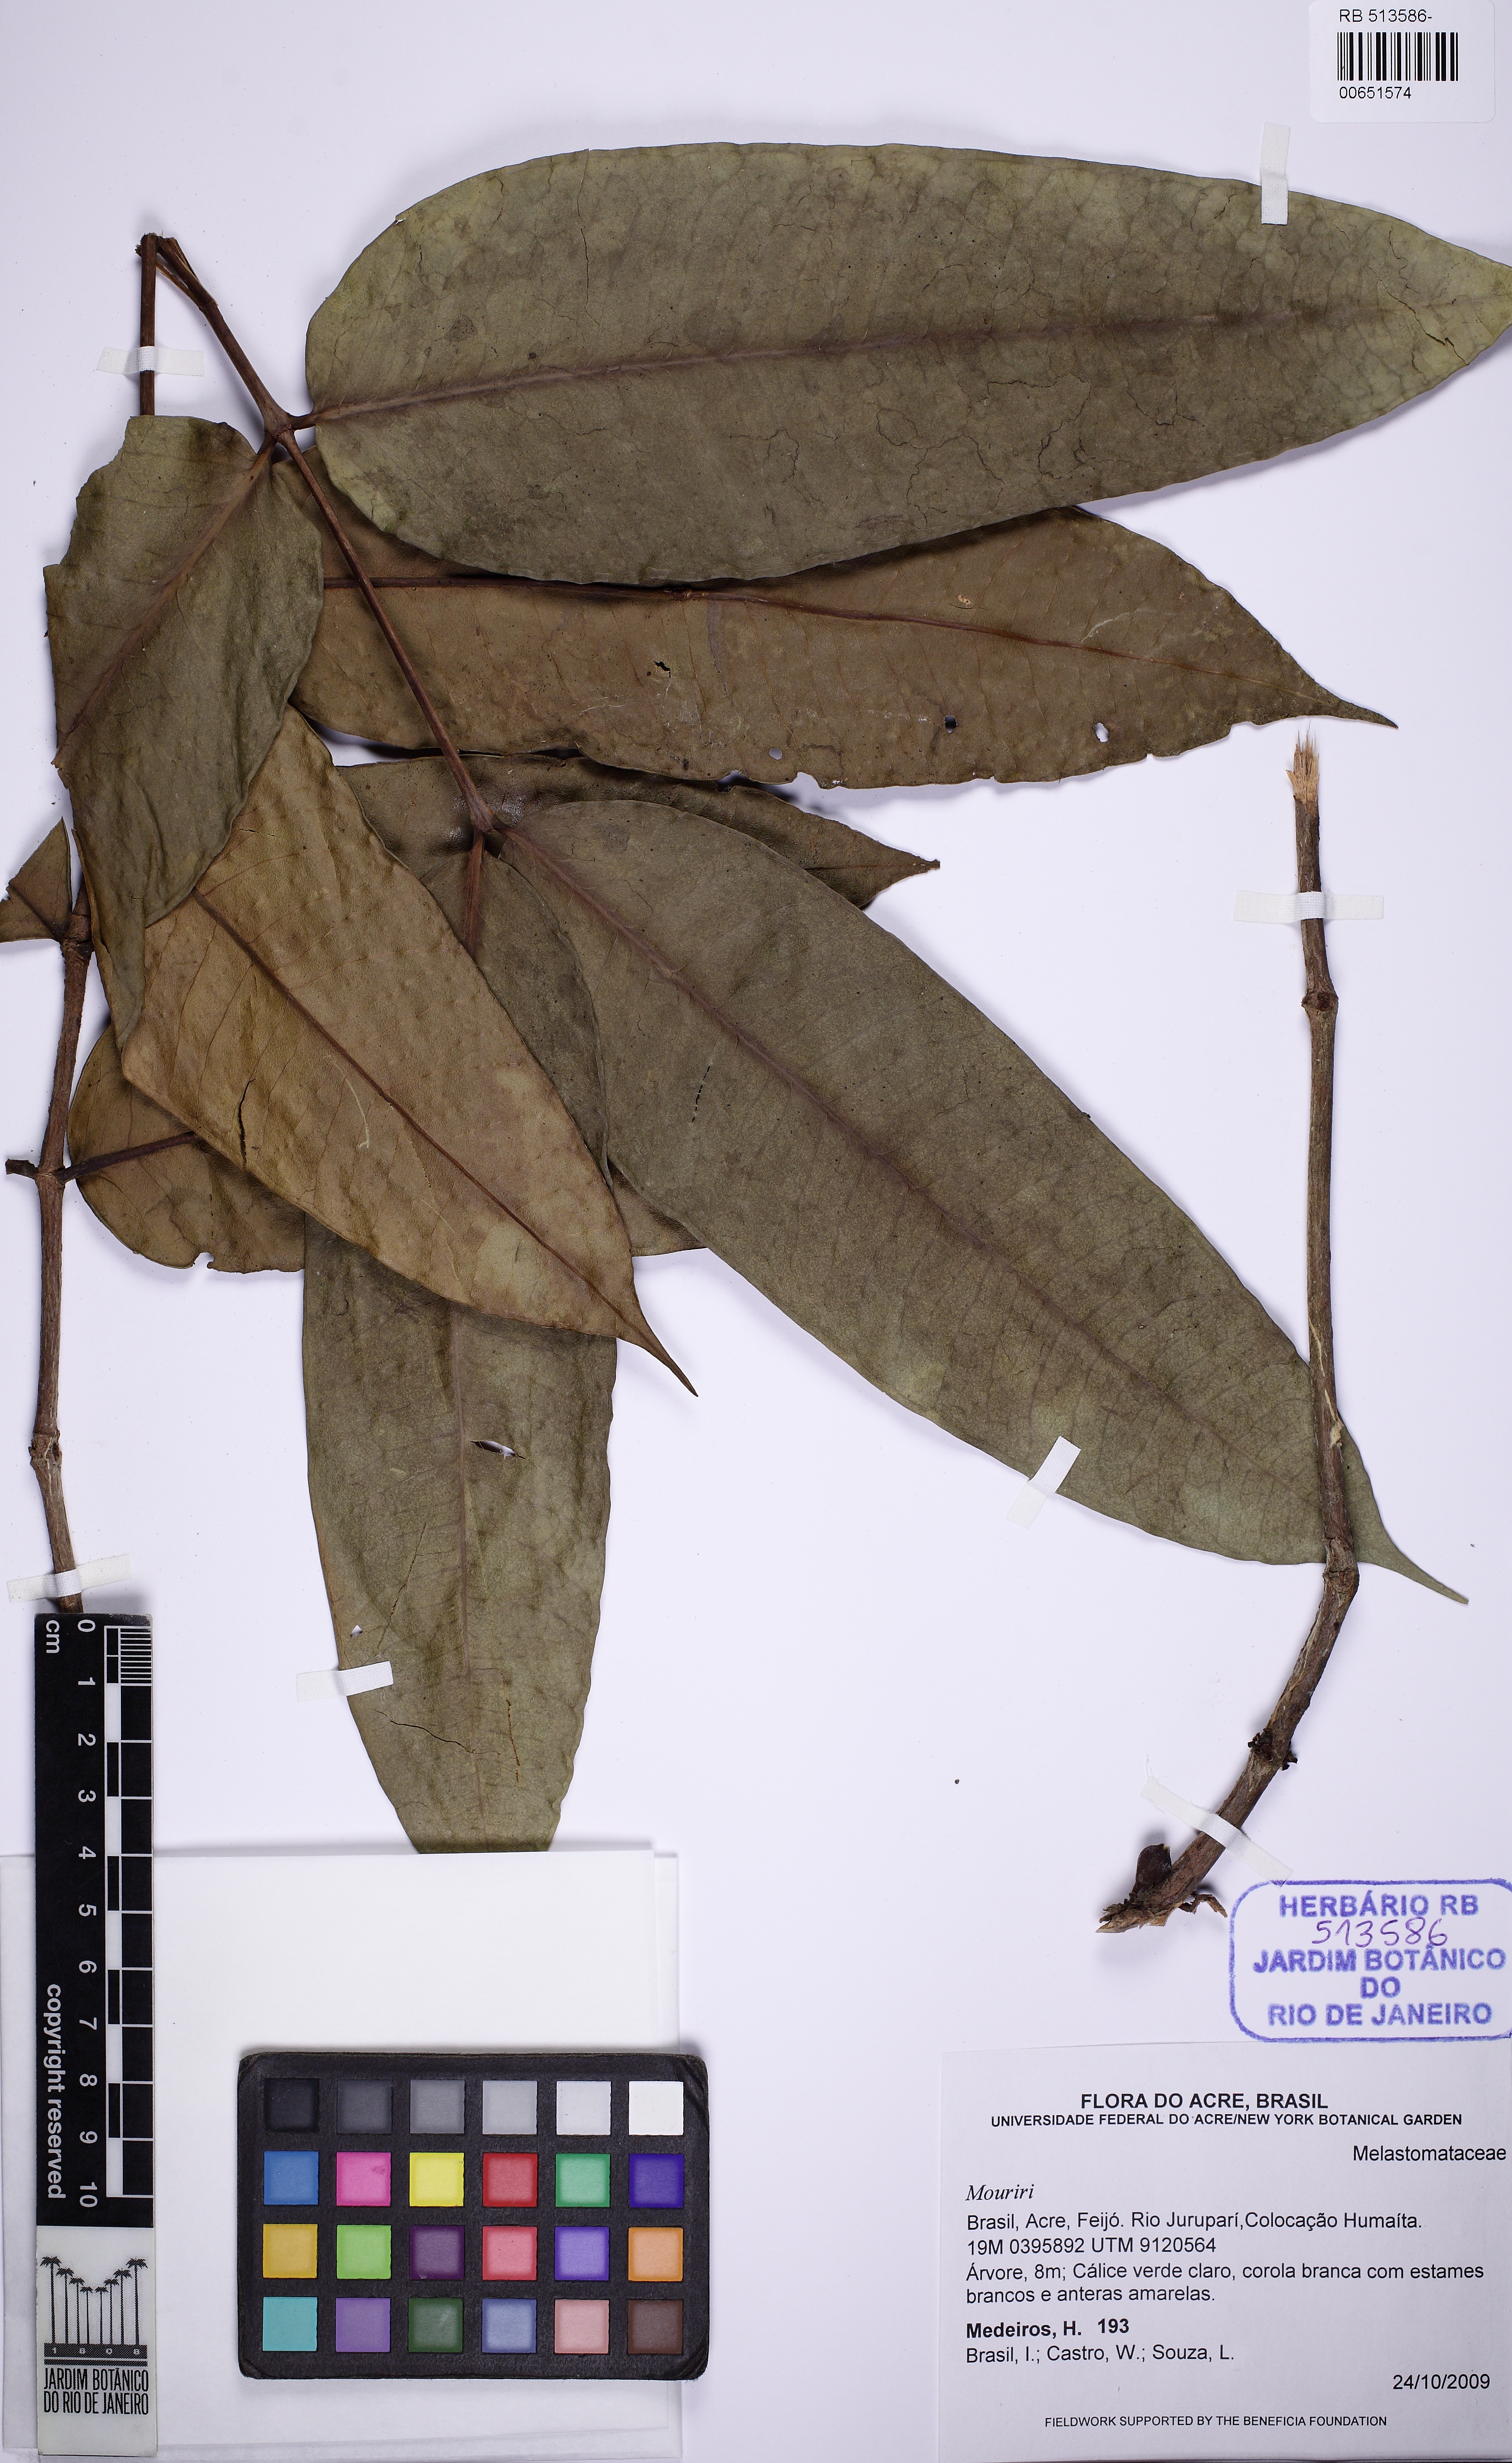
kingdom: Plantae
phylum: Tracheophyta
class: Magnoliopsida
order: Myrtales
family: Melastomataceae
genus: Mouriri
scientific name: Mouriri grandiflora
